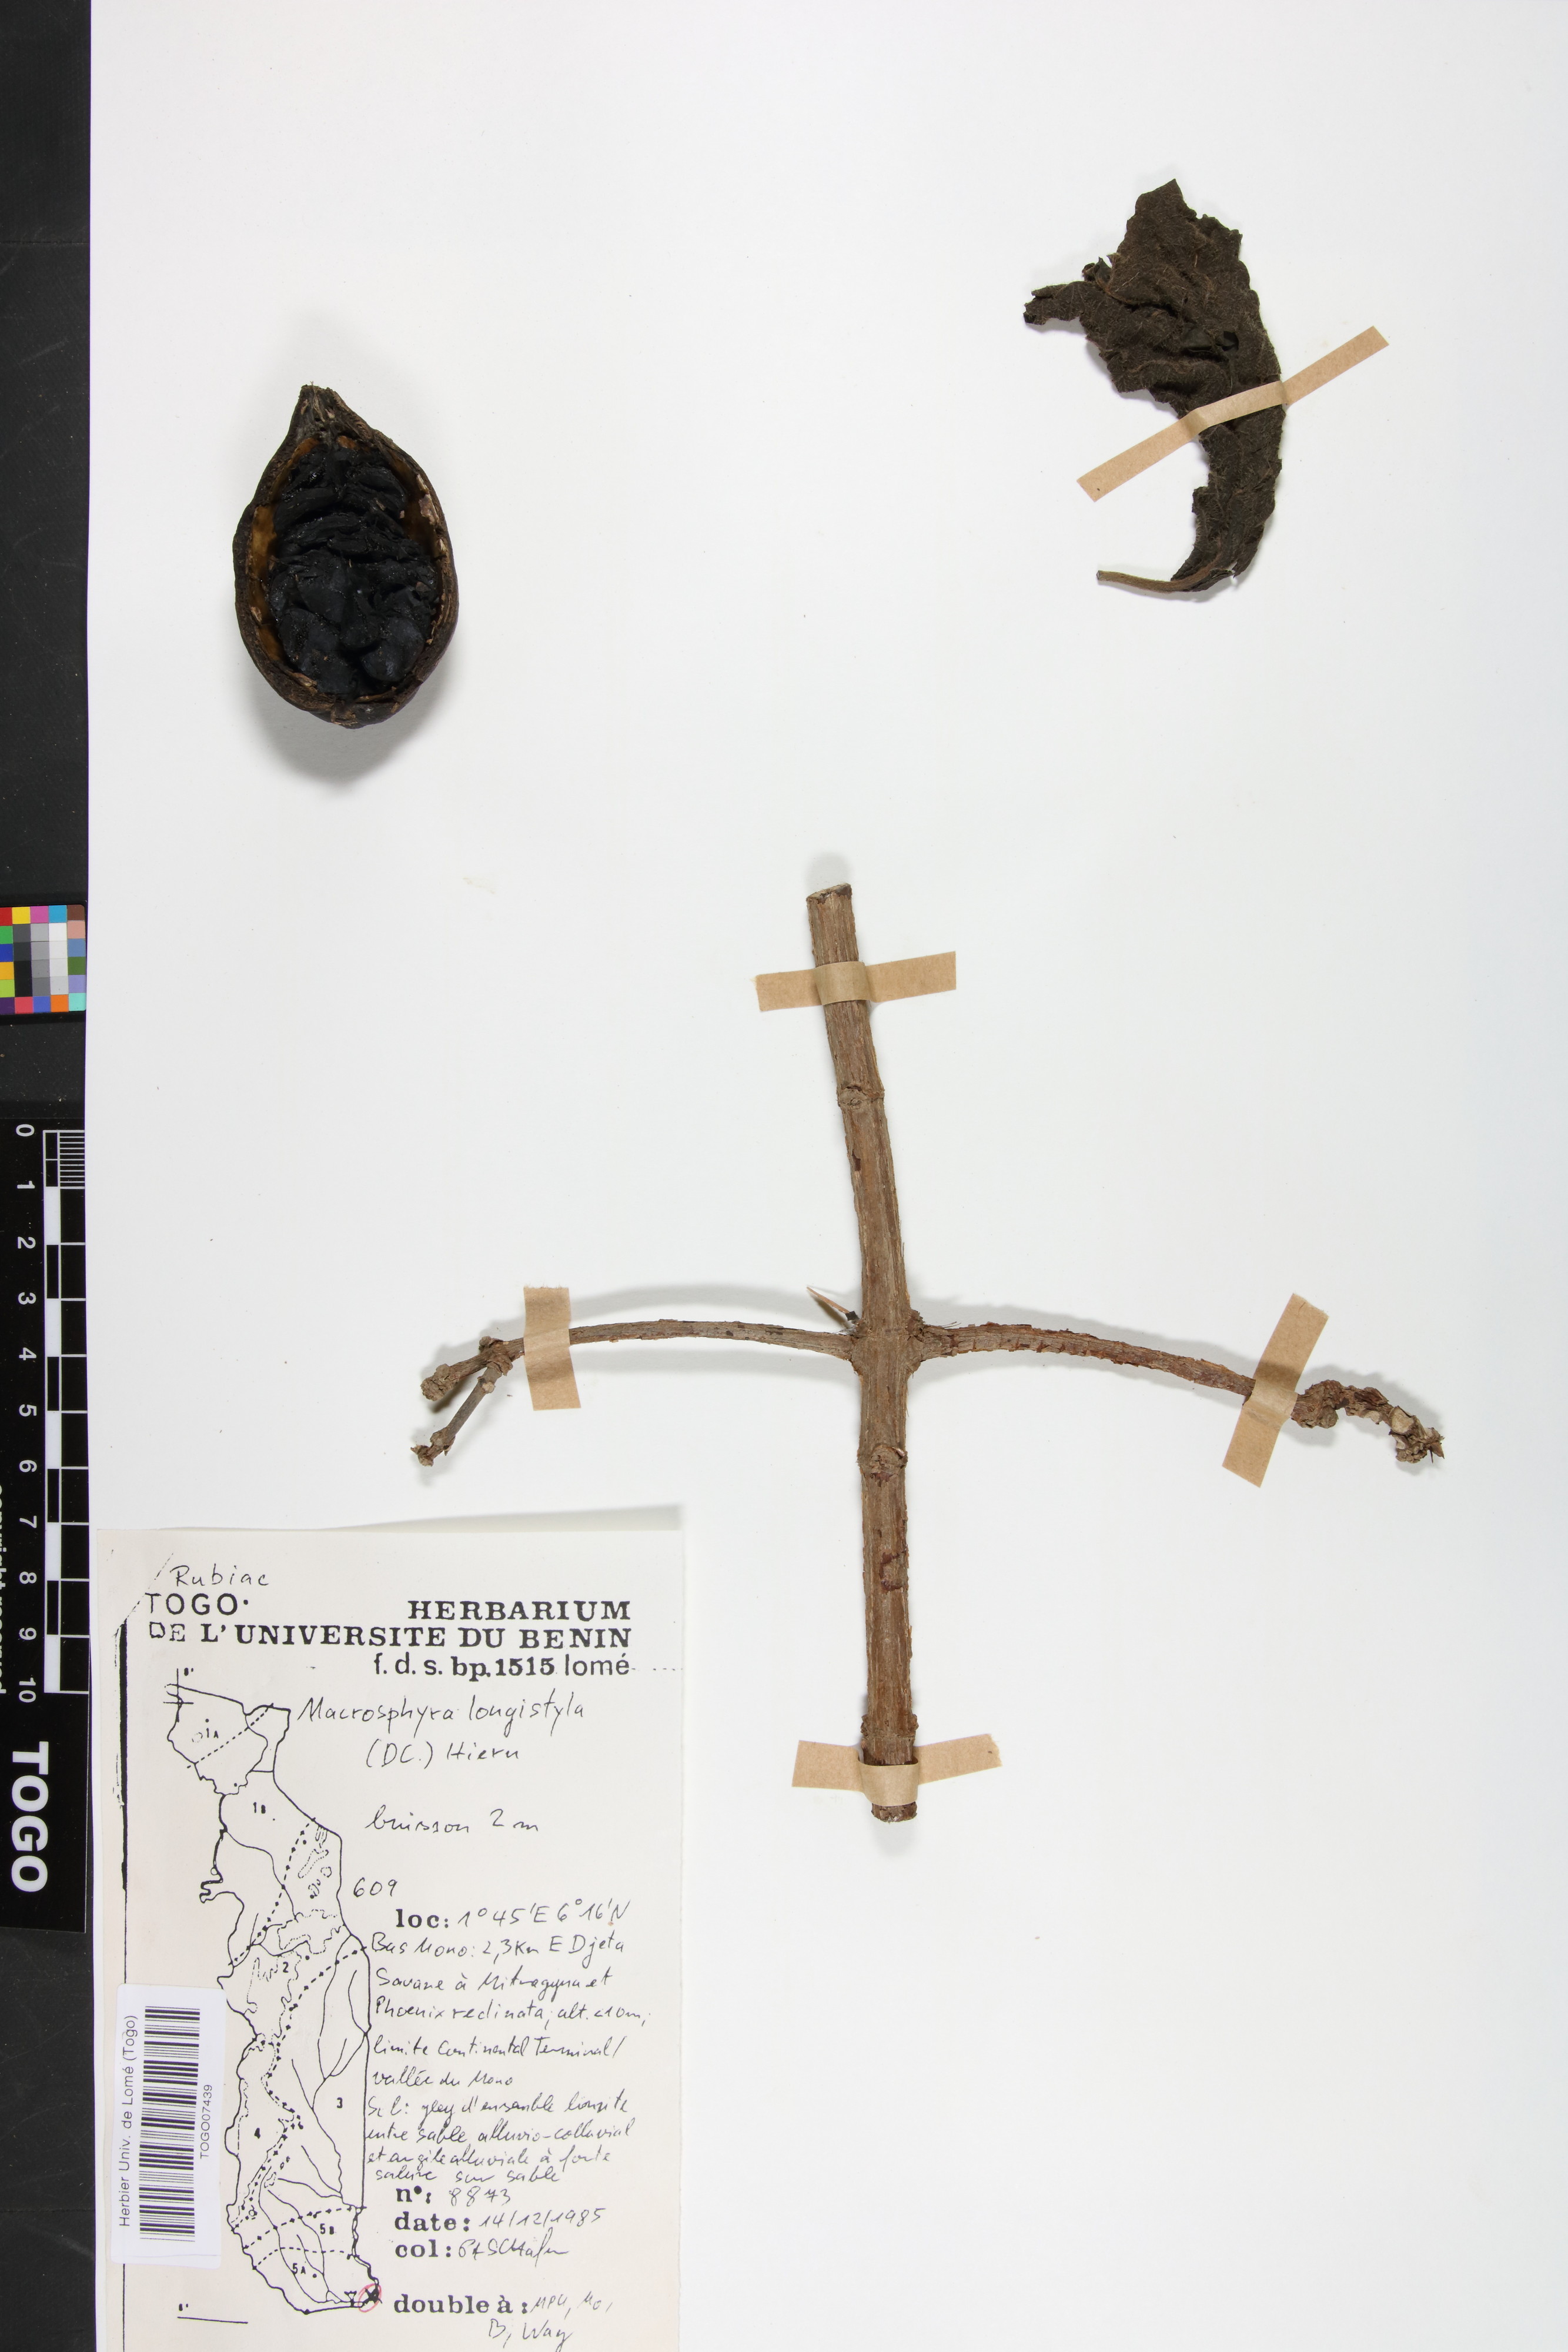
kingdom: Plantae
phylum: Tracheophyta
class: Magnoliopsida
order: Gentianales
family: Rubiaceae
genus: Macrosphyra
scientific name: Macrosphyra longistyla
